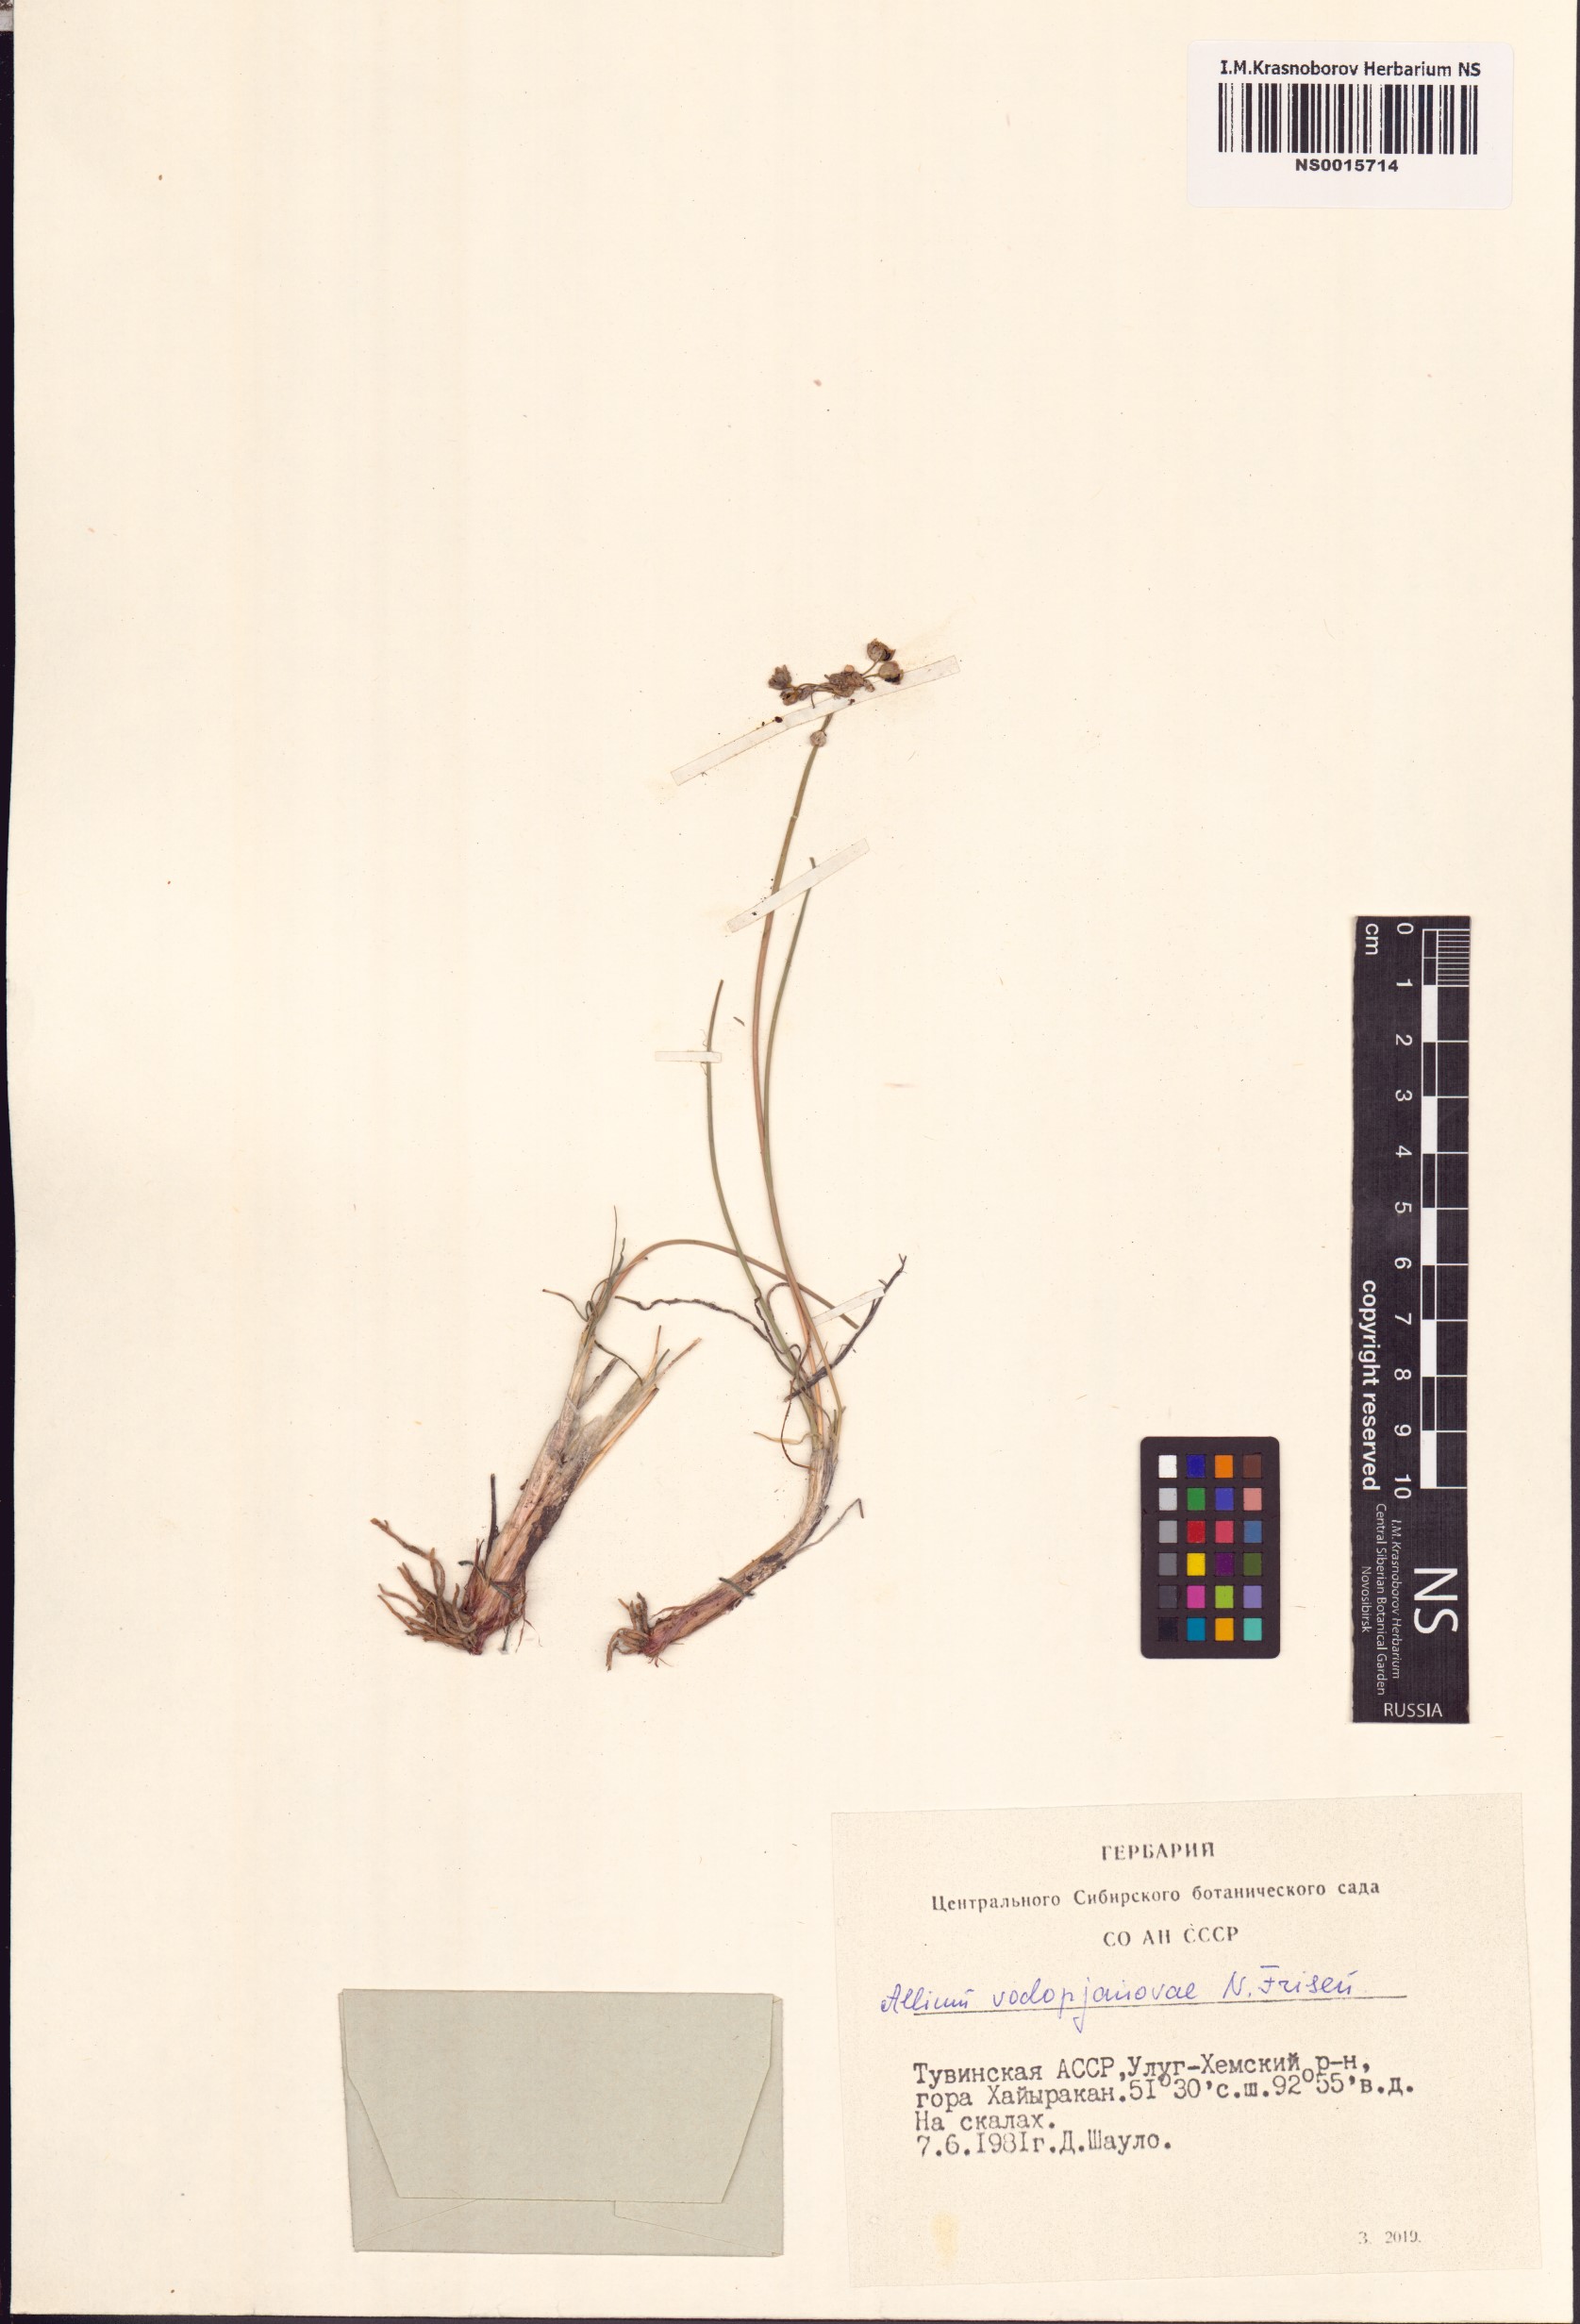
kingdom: Plantae
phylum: Tracheophyta
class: Liliopsida
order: Asparagales
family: Amaryllidaceae
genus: Allium
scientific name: Allium vodopjanovae
